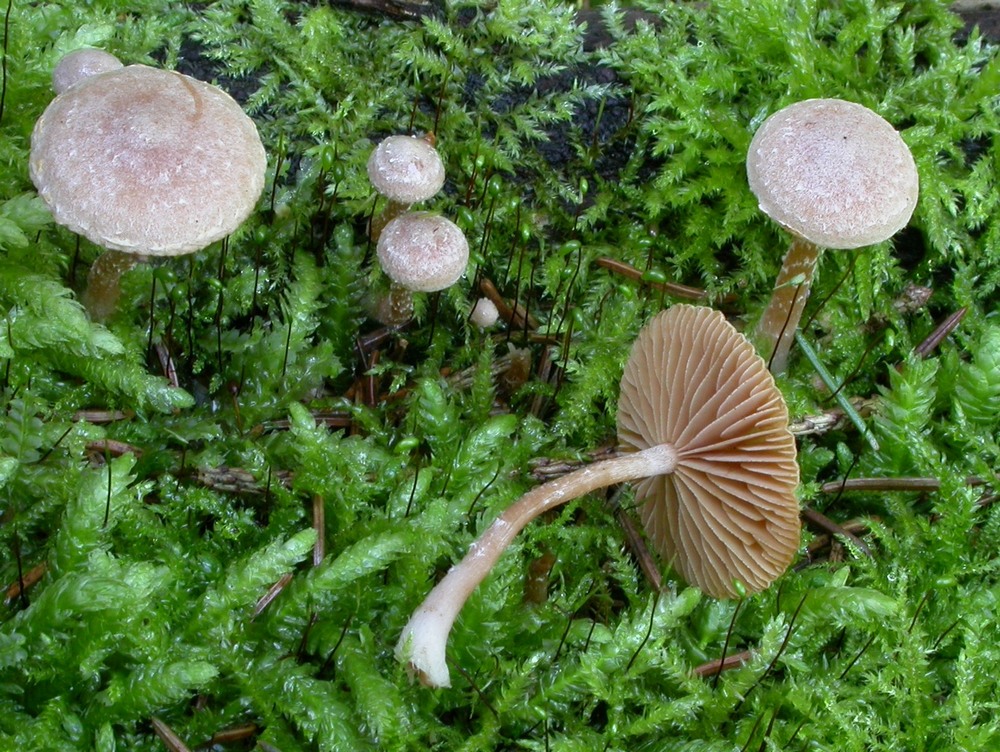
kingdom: Fungi
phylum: Basidiomycota
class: Agaricomycetes
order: Agaricales
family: Tubariaceae
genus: Tubaria
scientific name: Tubaria conspersa
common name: bleg fnughat
